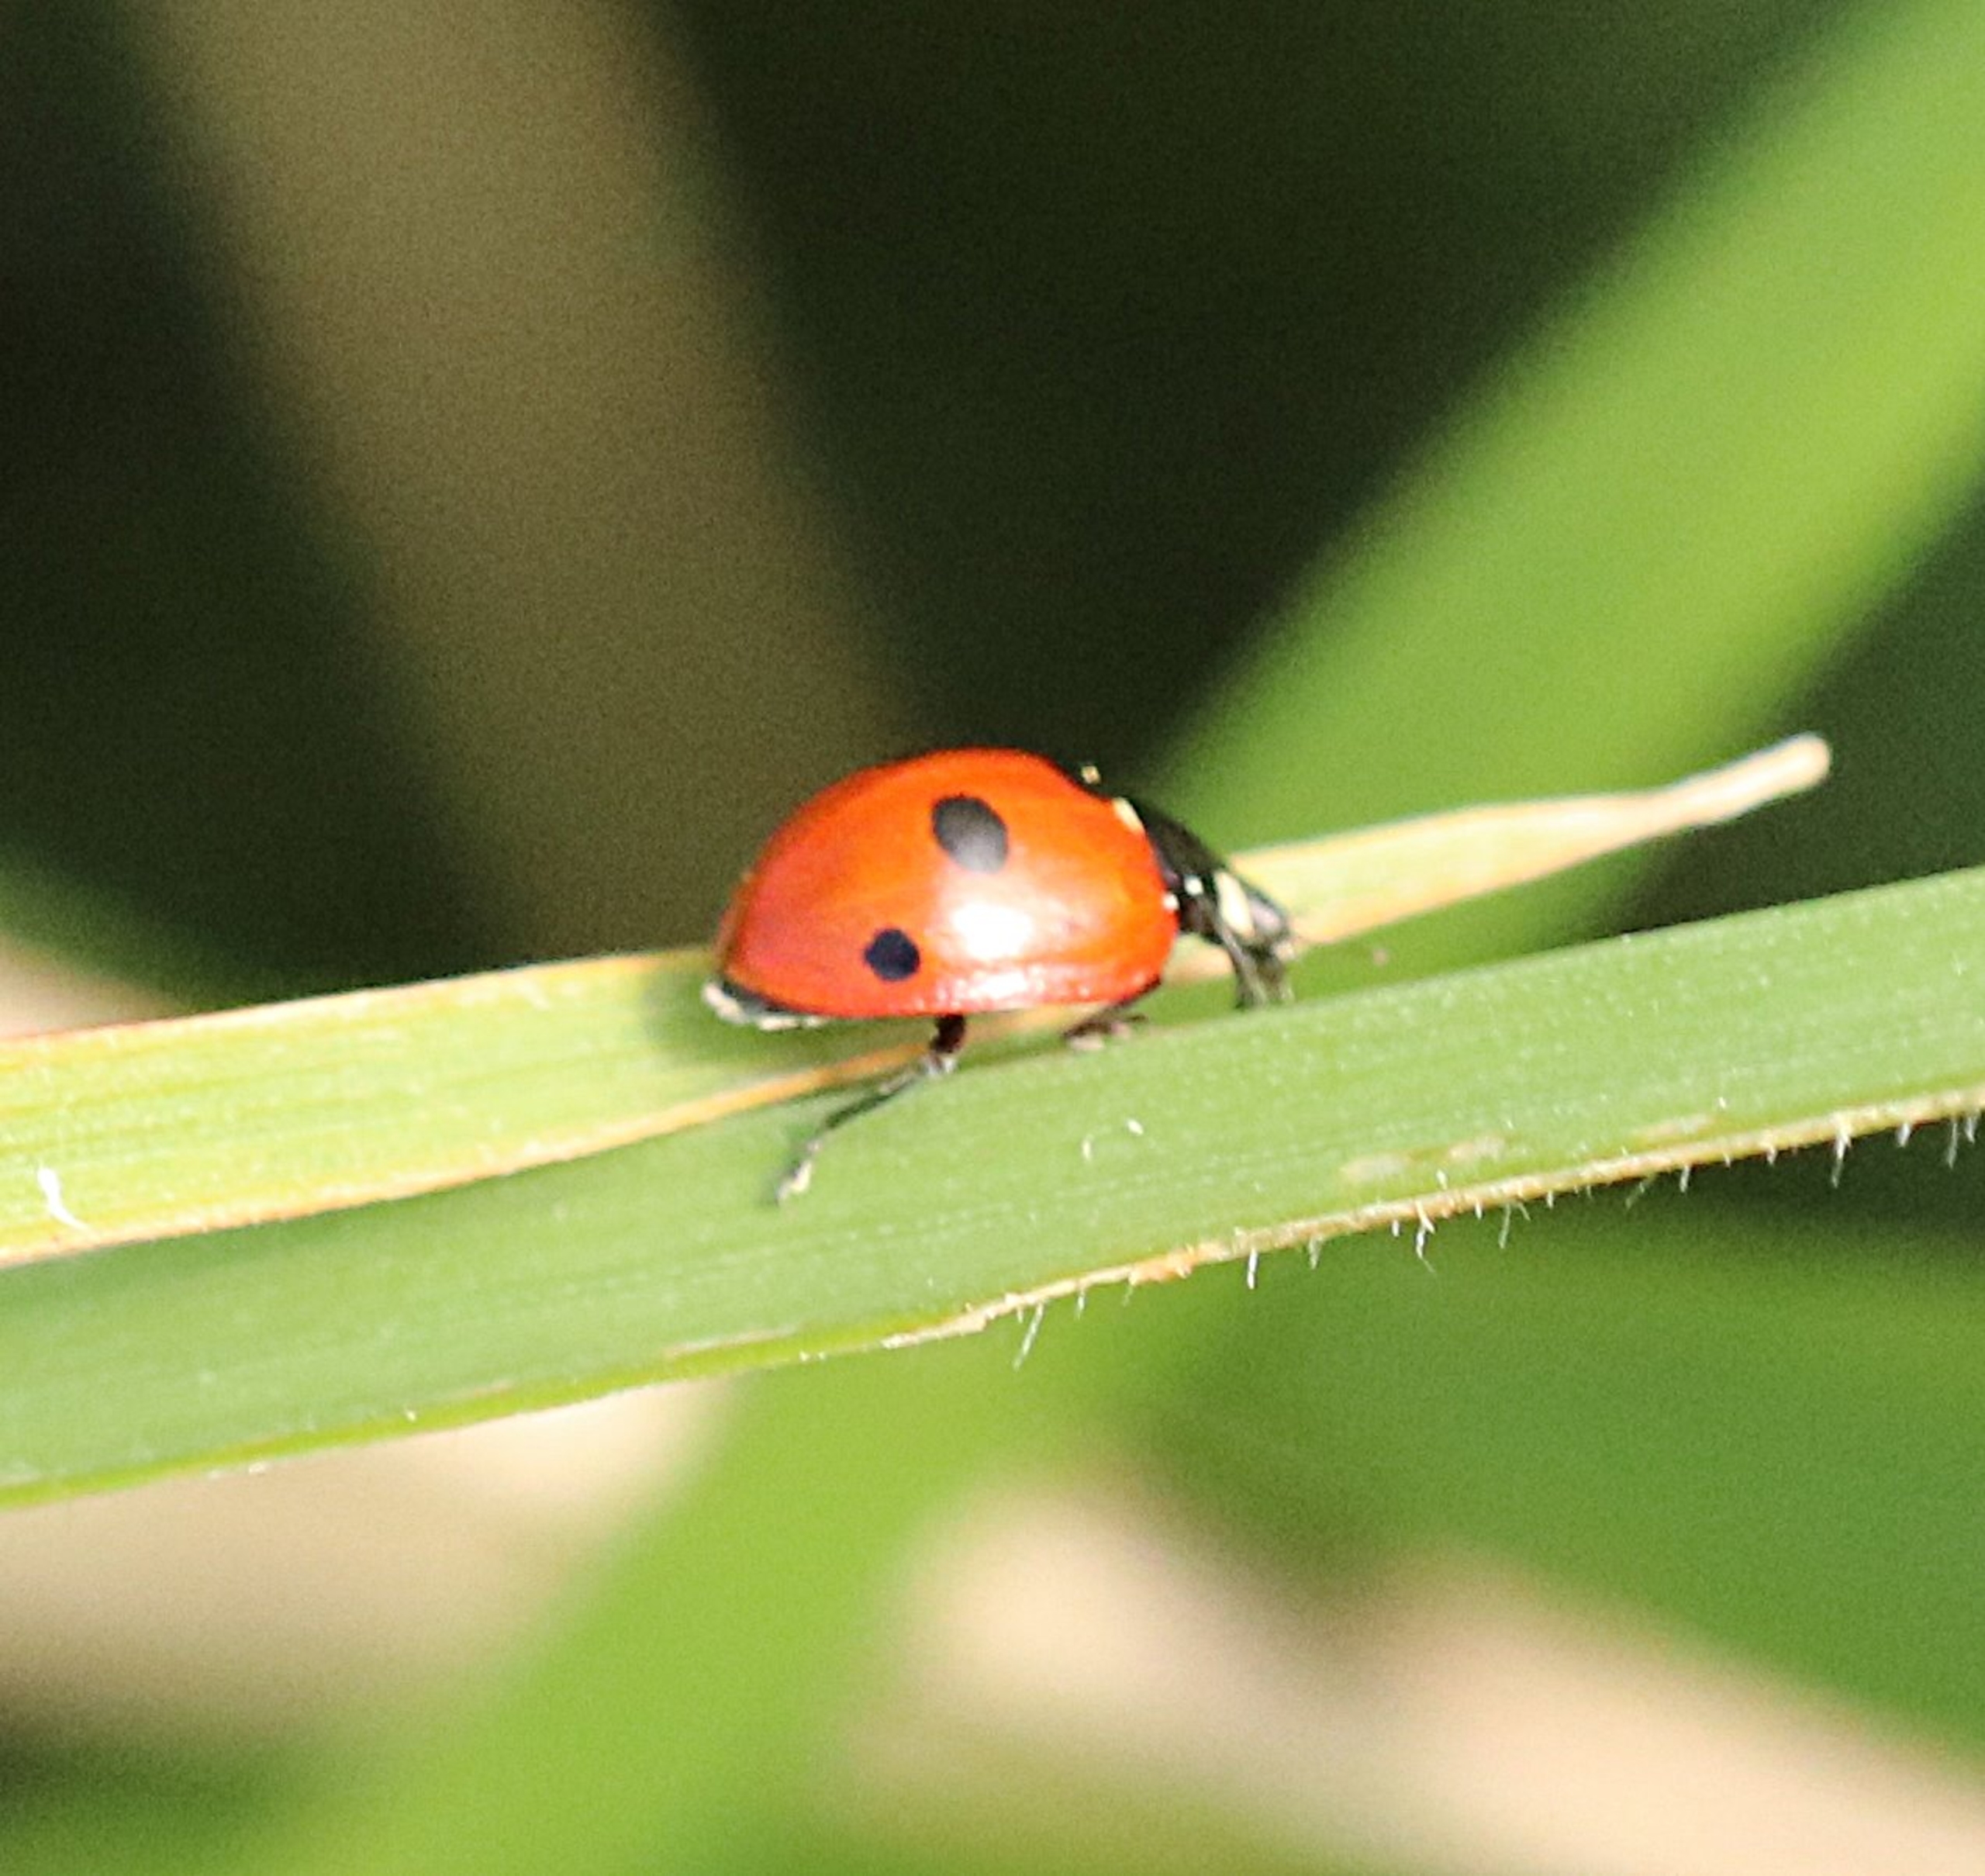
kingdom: Animalia
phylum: Arthropoda
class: Insecta
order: Coleoptera
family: Coccinellidae
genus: Coccinella
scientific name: Coccinella quinquepunctata
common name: Femplettet mariehøne
